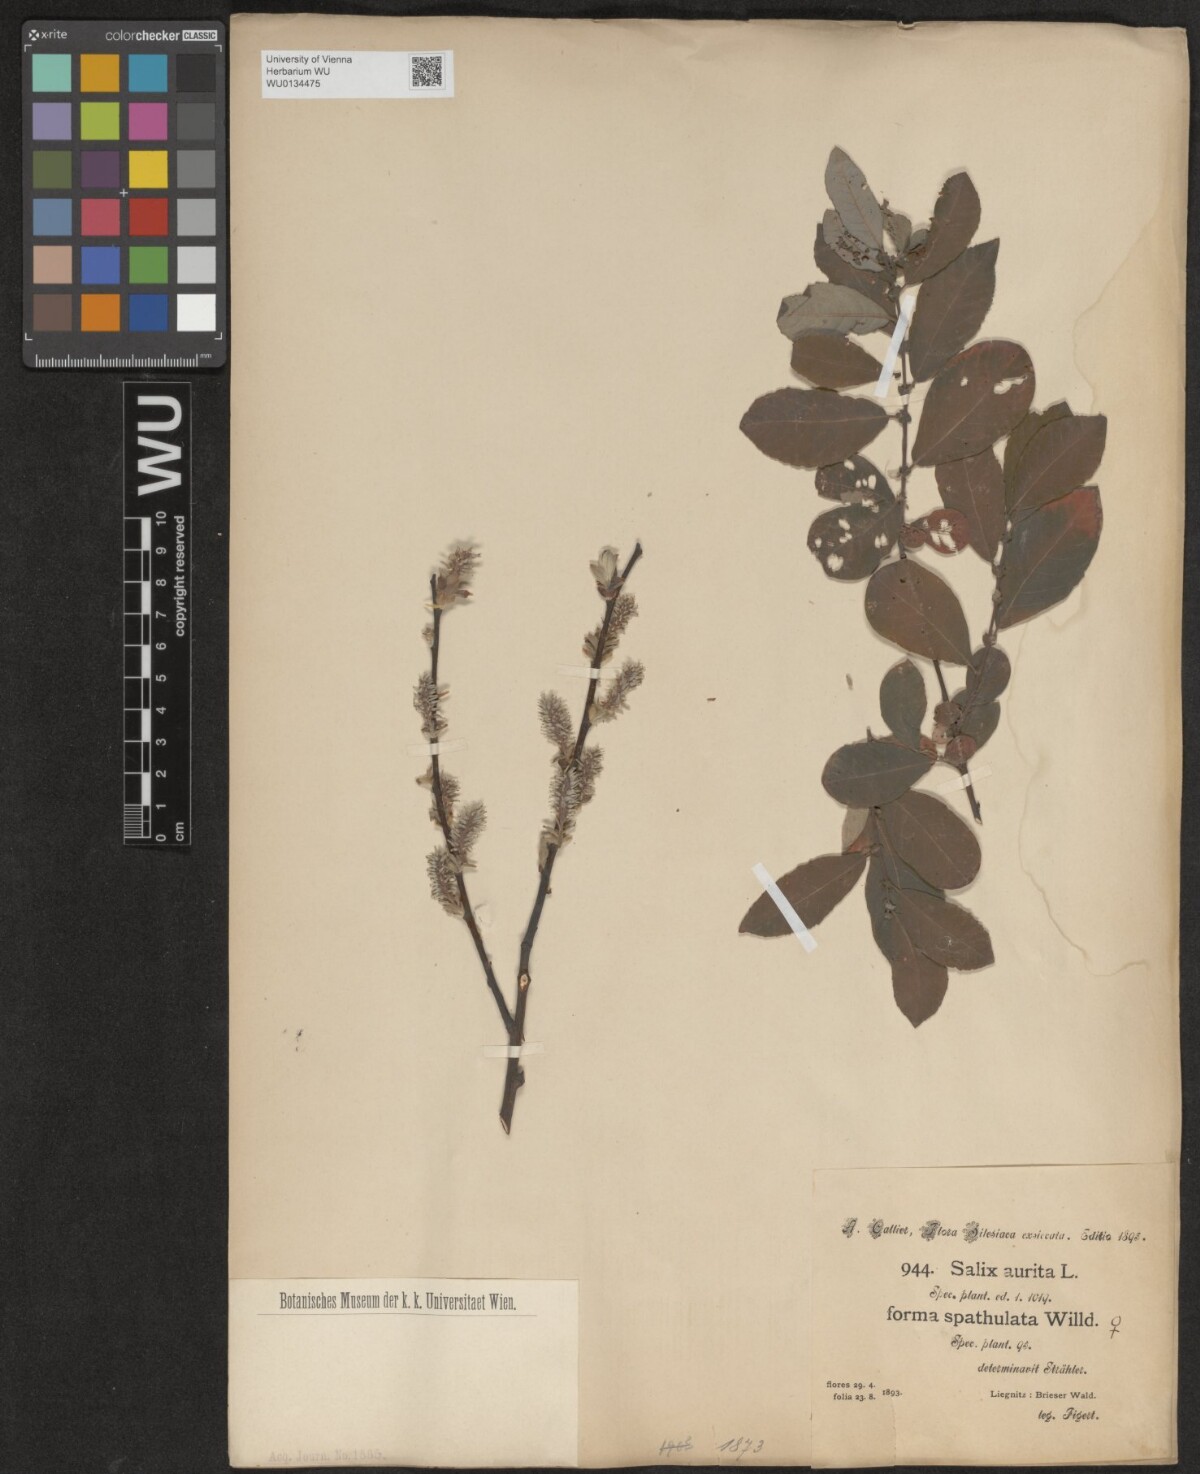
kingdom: Plantae
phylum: Tracheophyta
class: Magnoliopsida
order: Malpighiales
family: Salicaceae
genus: Salix
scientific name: Salix aurita
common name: Eared willow
